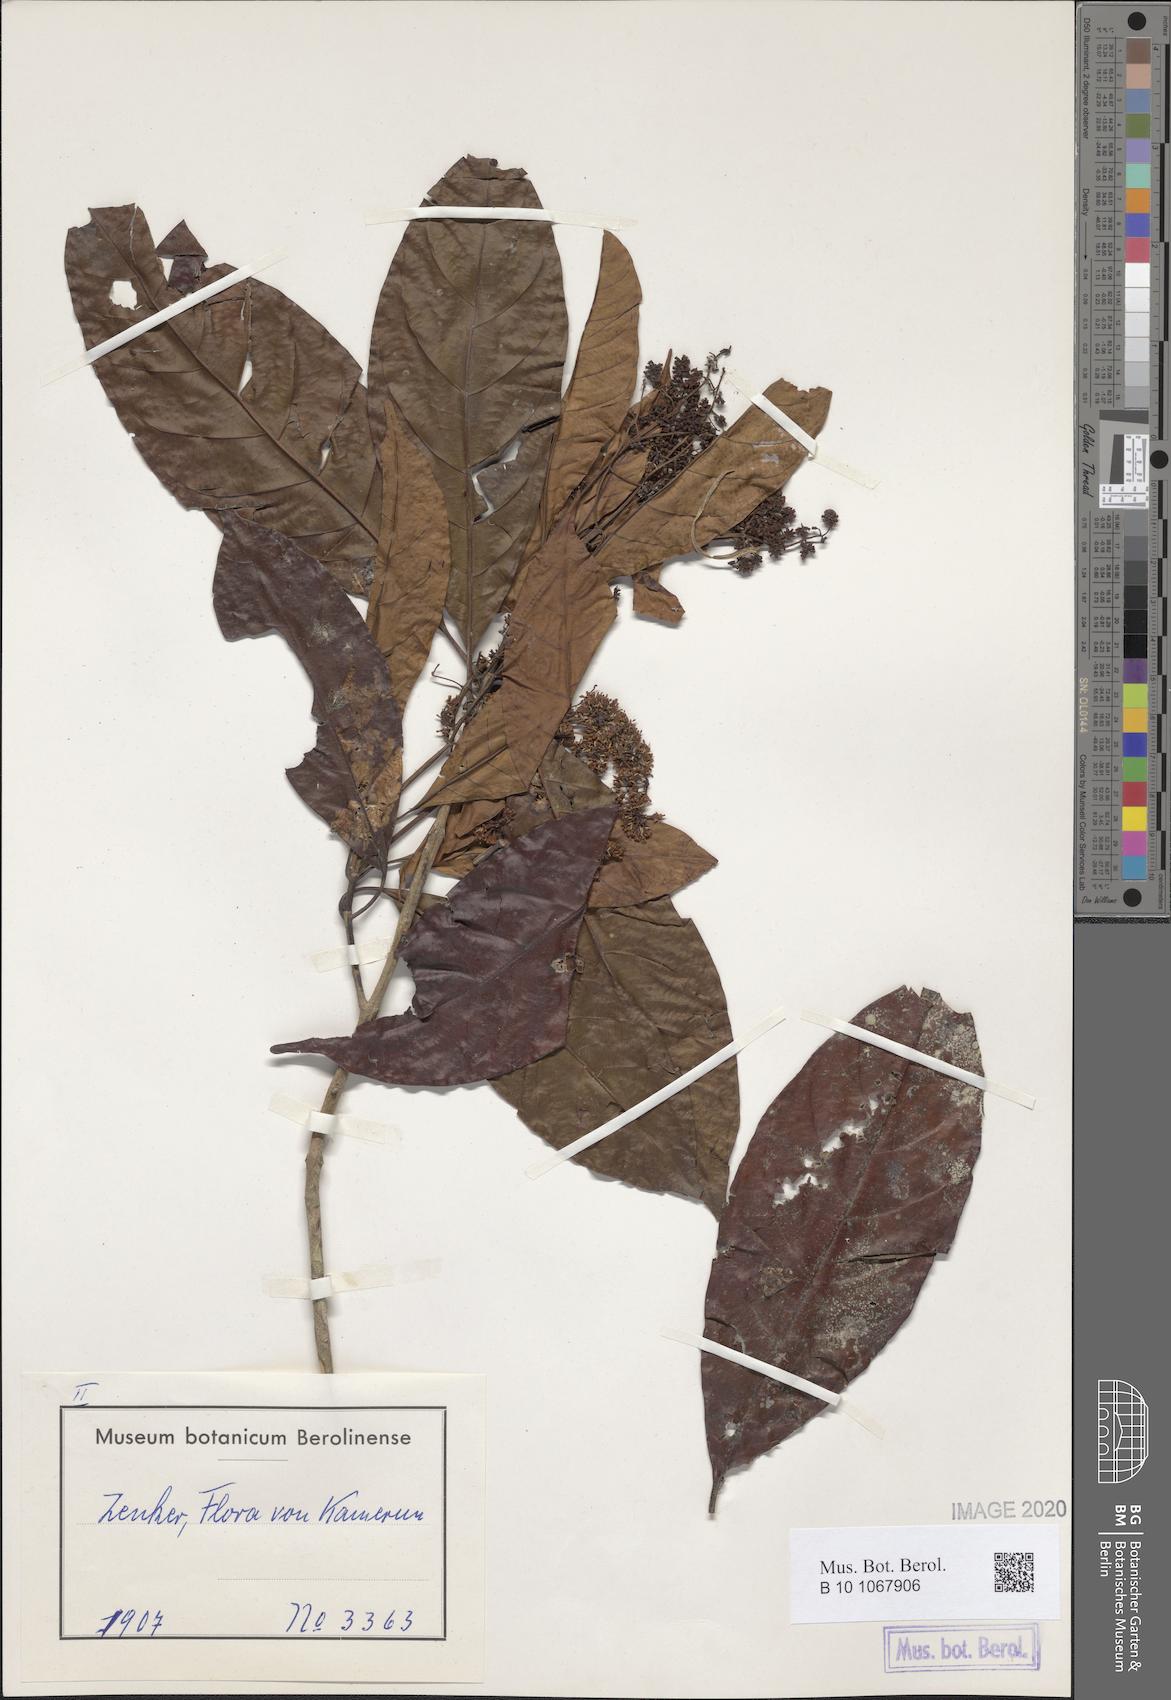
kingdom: Plantae
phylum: Tracheophyta
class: Magnoliopsida
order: Gentianales
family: Rubiaceae
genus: Corynanthe
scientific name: Corynanthe pachyceras
